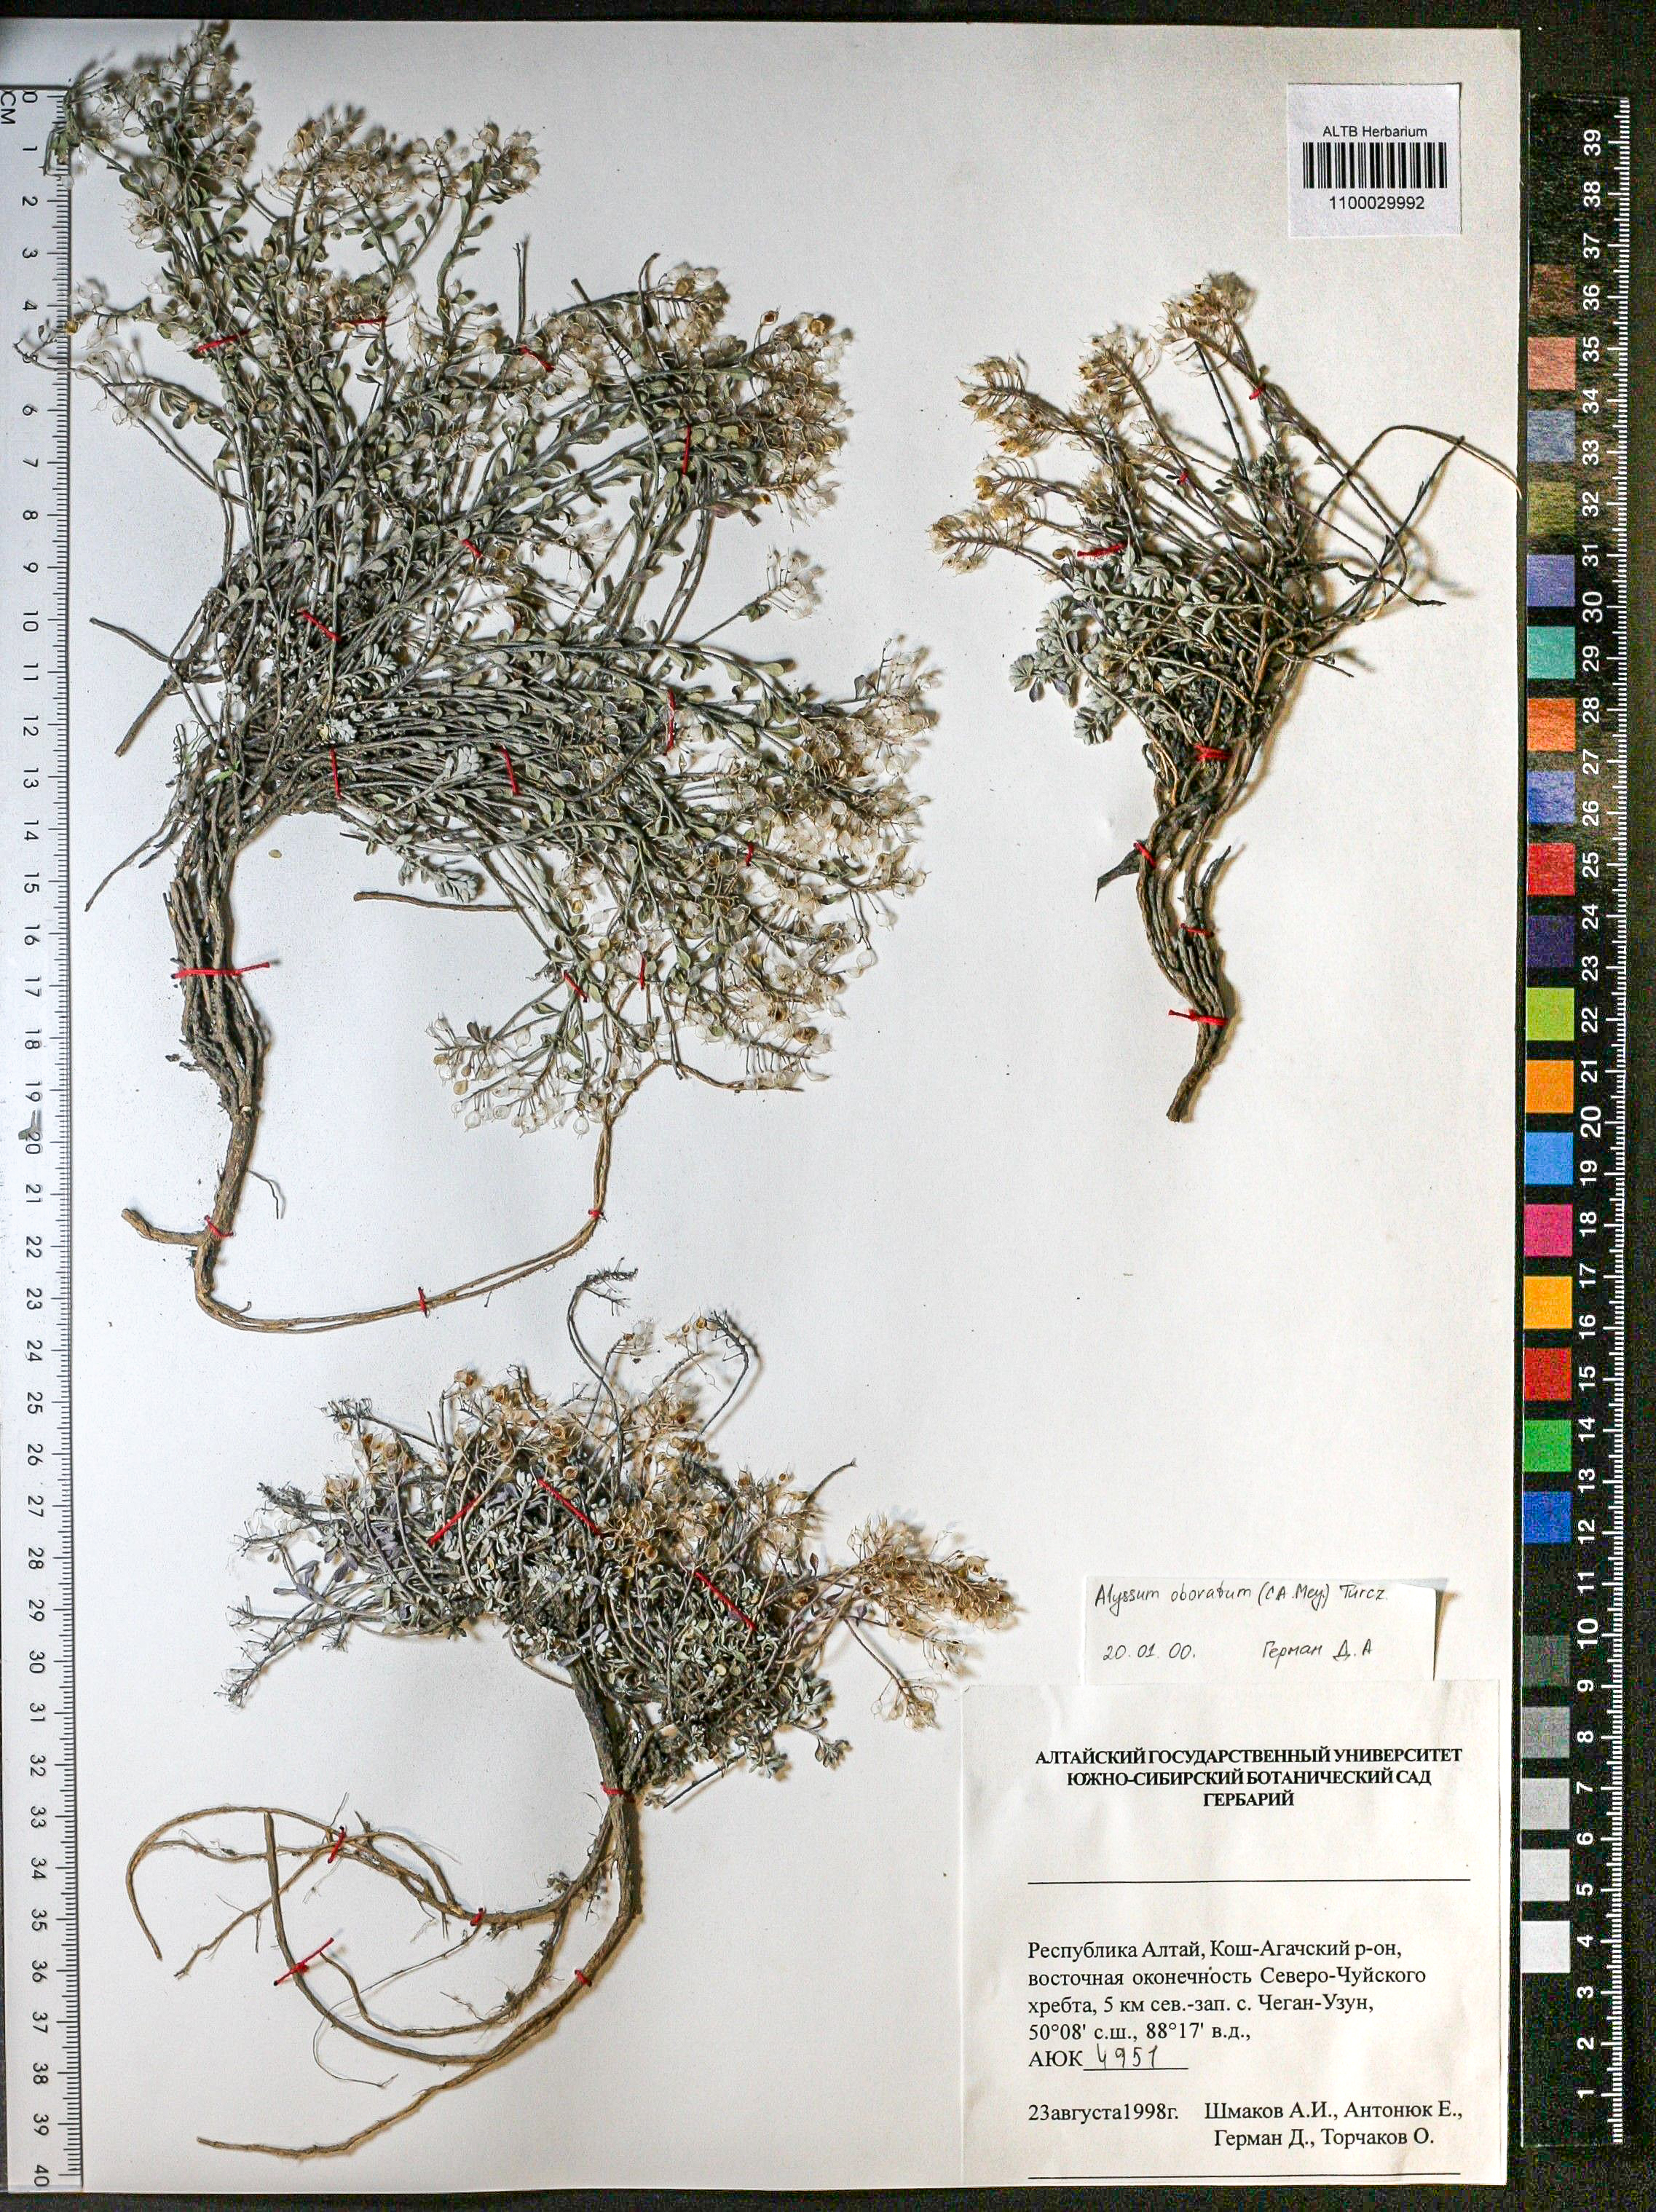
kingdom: Plantae
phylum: Tracheophyta
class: Magnoliopsida
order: Brassicales
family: Brassicaceae
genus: Odontarrhena
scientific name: Odontarrhena obovata
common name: American alyssum
